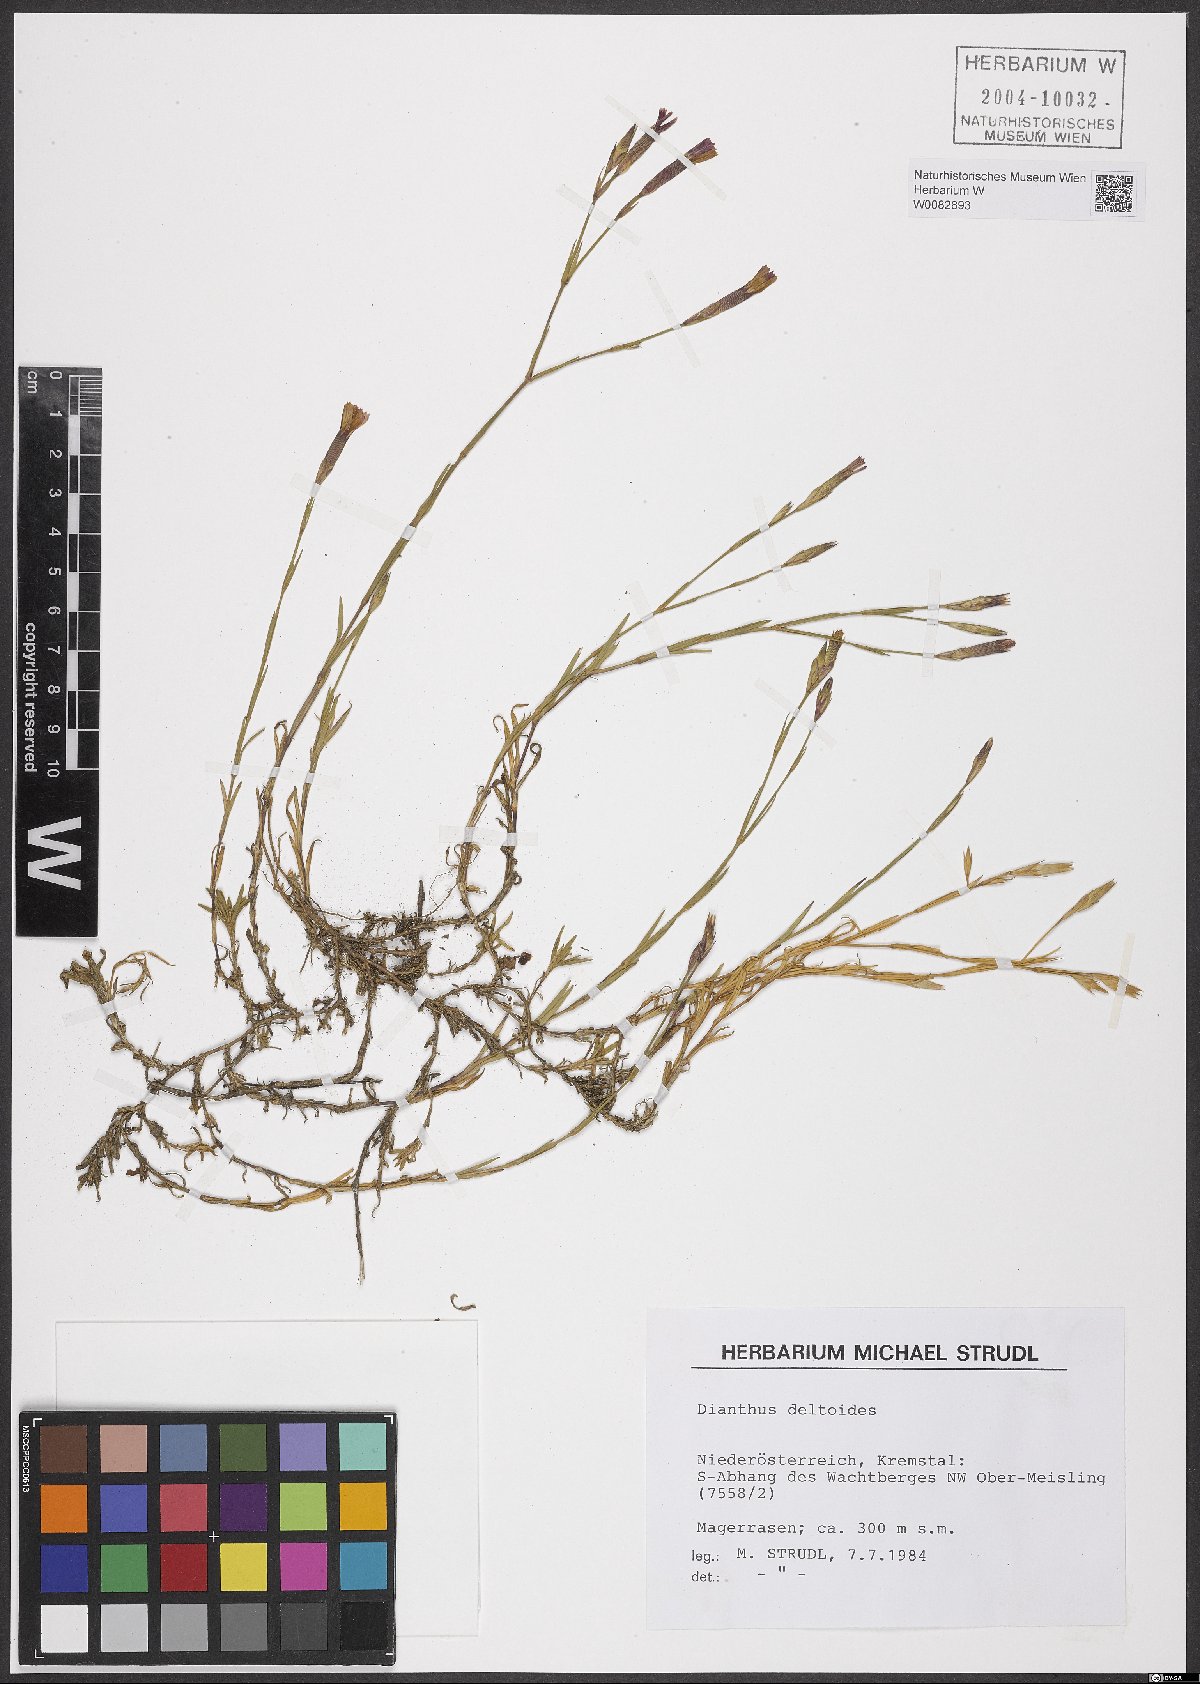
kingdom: Plantae
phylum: Tracheophyta
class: Magnoliopsida
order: Caryophyllales
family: Caryophyllaceae
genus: Dianthus
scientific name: Dianthus deltoides
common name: Maiden pink
